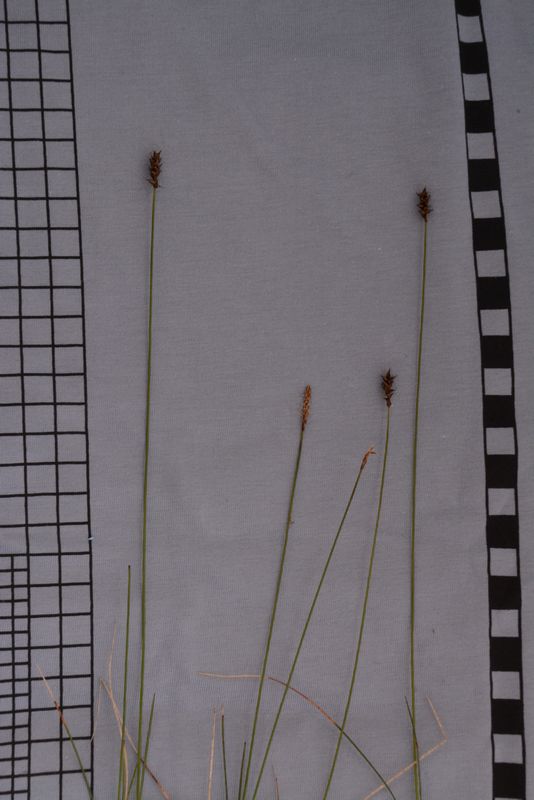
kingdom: Plantae
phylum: Tracheophyta
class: Liliopsida
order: Poales
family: Cyperaceae
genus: Carex
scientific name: Carex dioica
